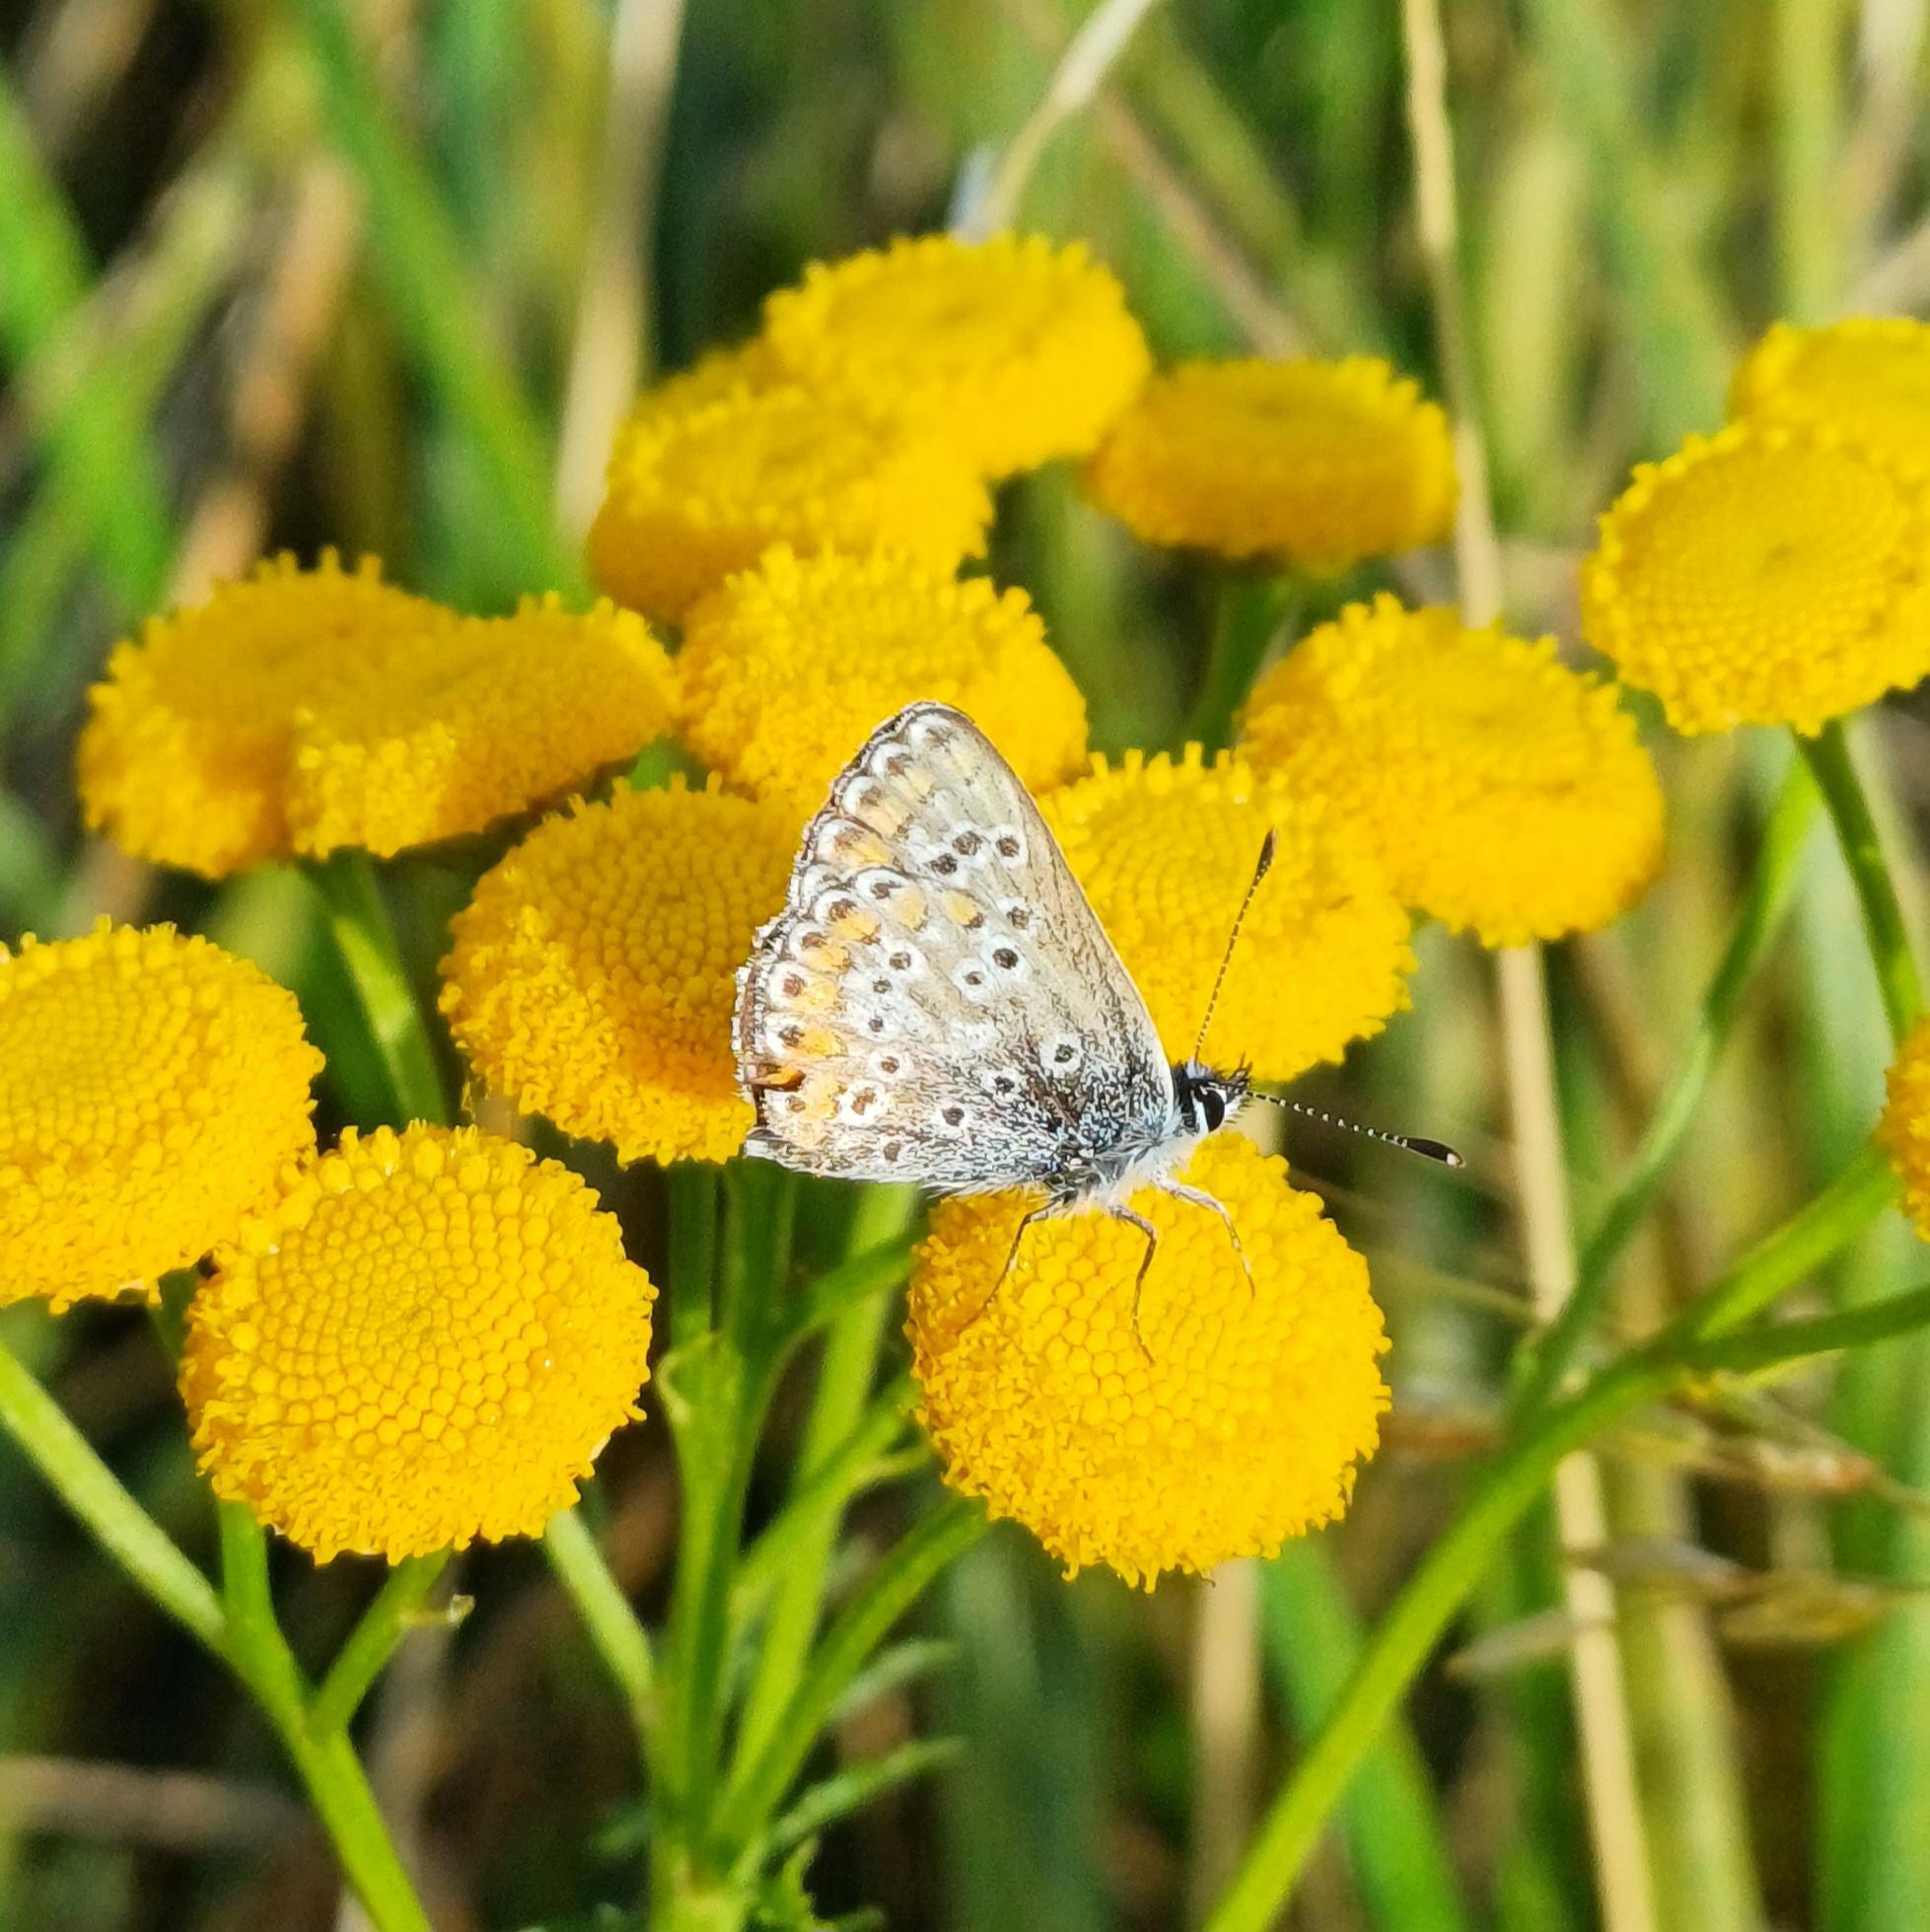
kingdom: Animalia
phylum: Arthropoda
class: Insecta
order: Lepidoptera
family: Lycaenidae
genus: Aricia
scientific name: Aricia agestis
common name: Rødplettet blåfugl
